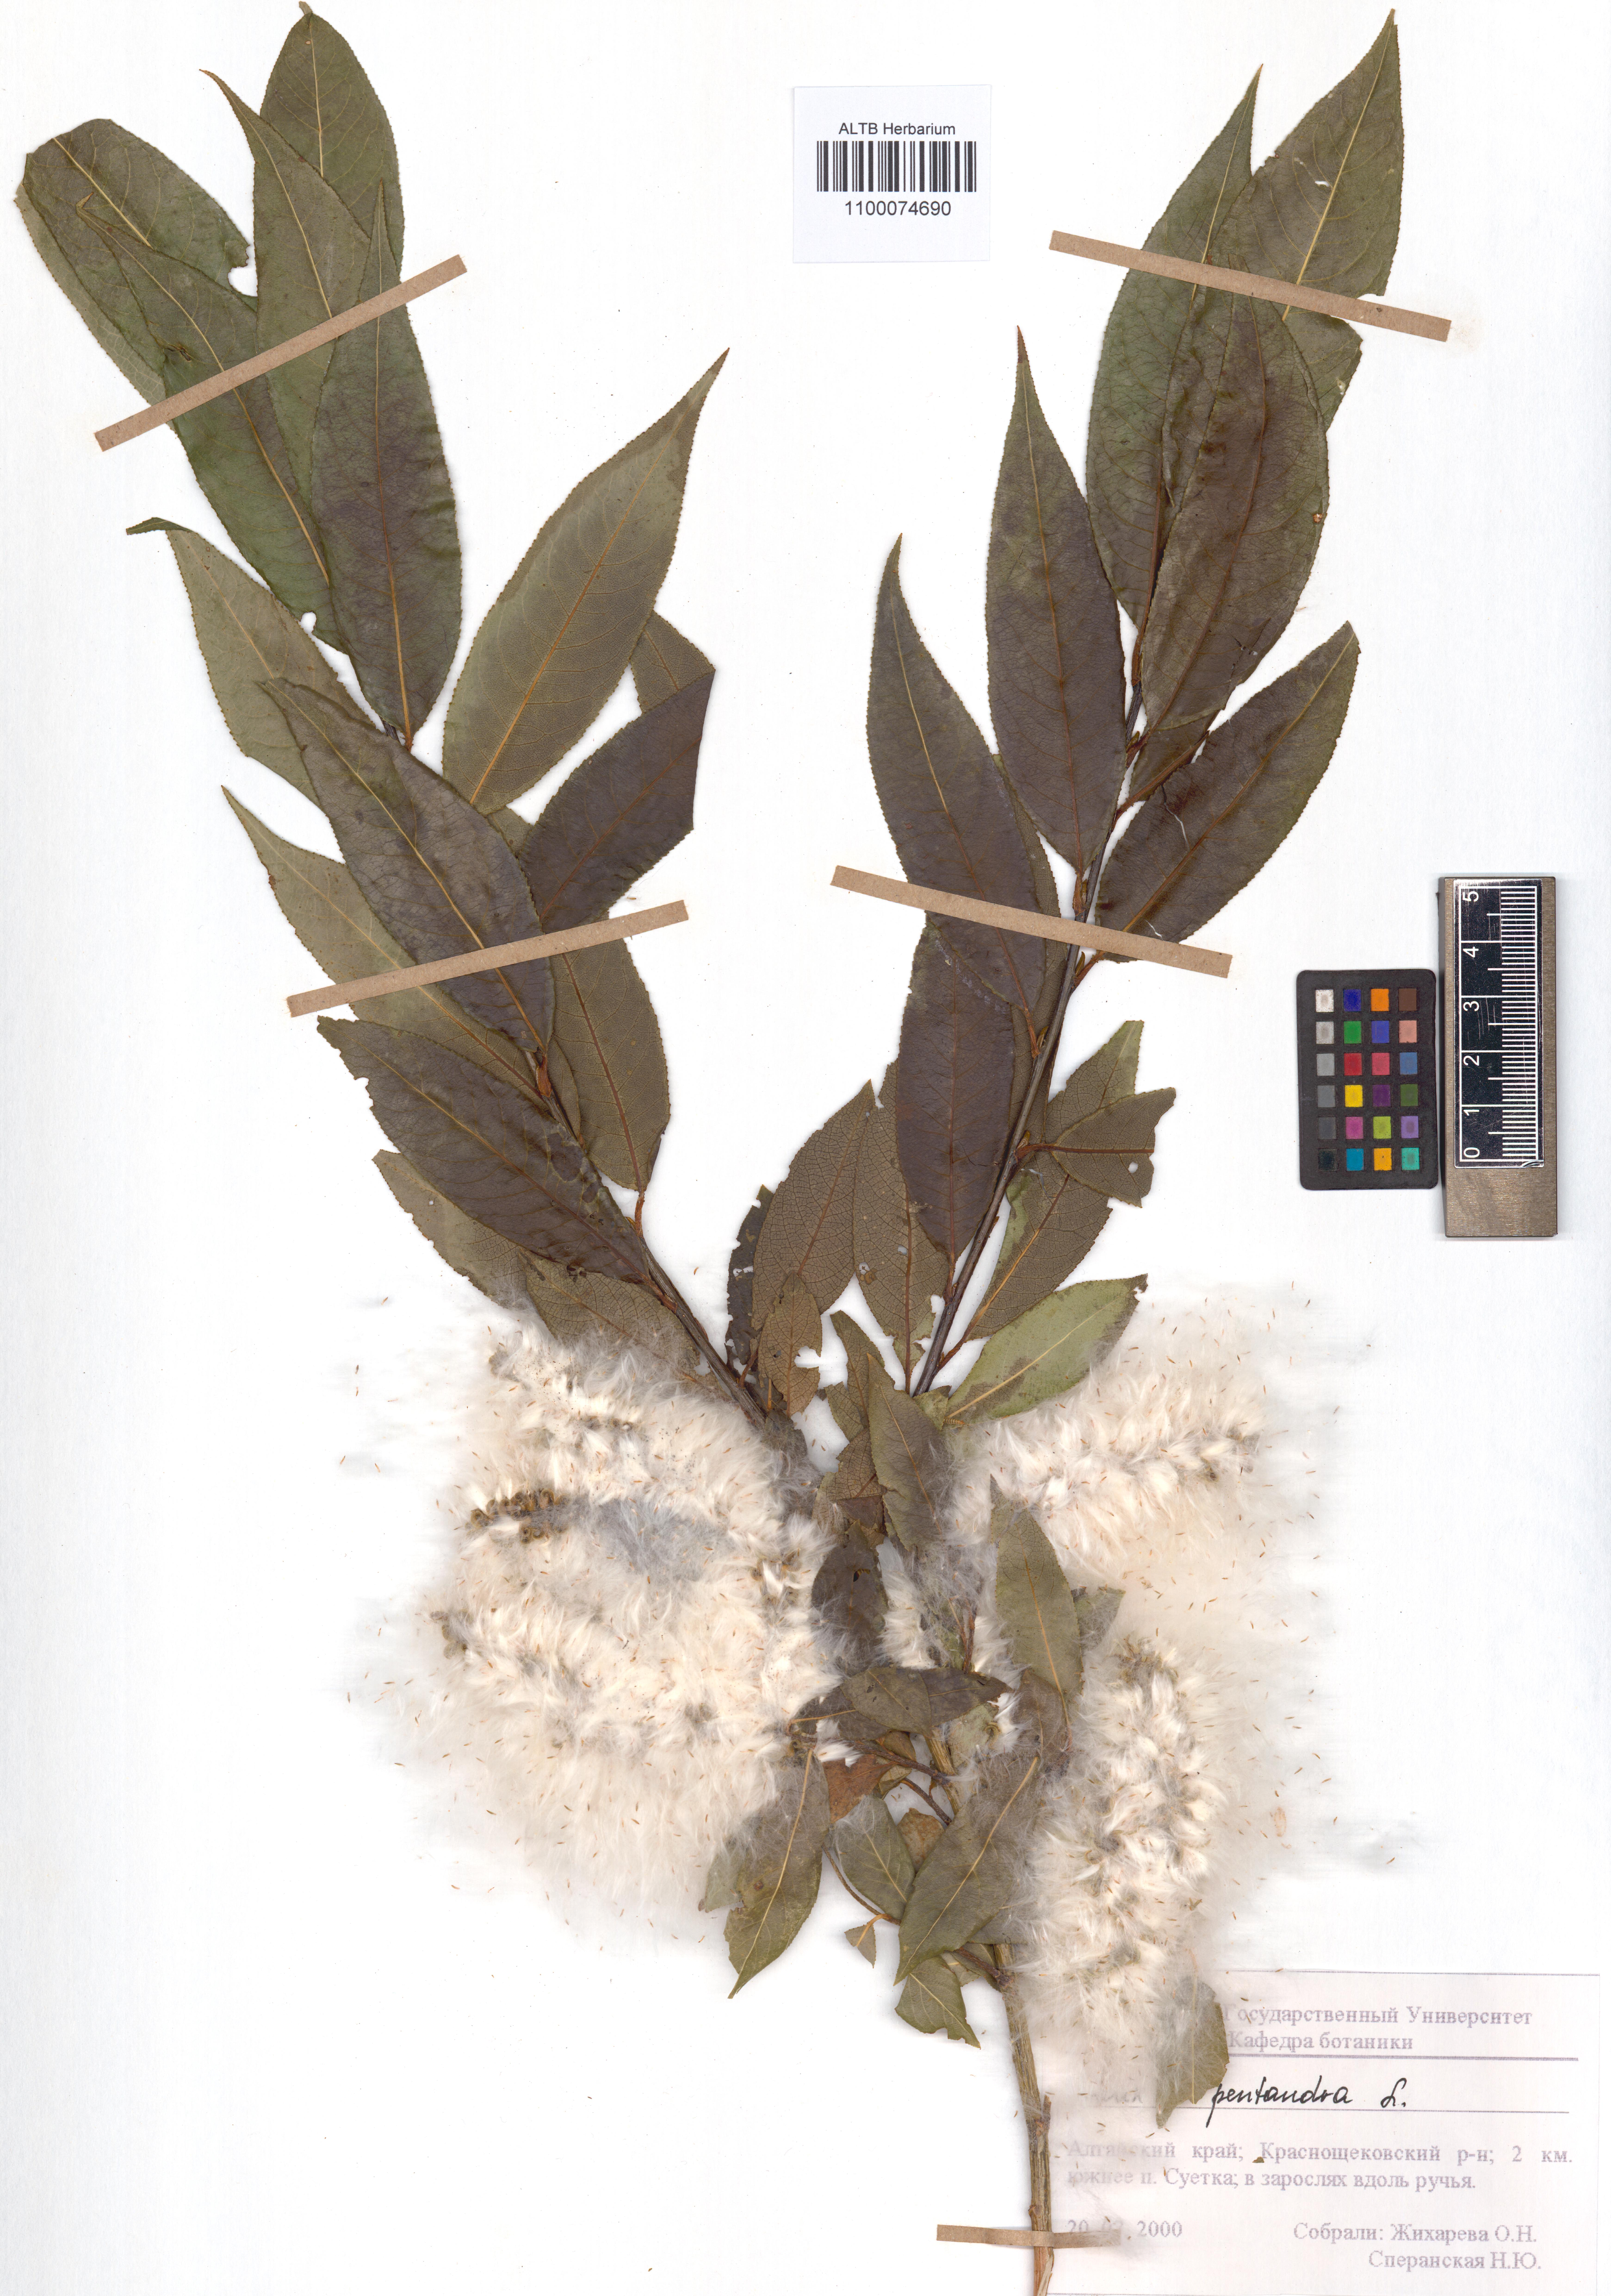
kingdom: Plantae
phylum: Tracheophyta
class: Magnoliopsida
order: Malpighiales
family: Salicaceae
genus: Salix
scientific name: Salix pentandra
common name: Bay willow
